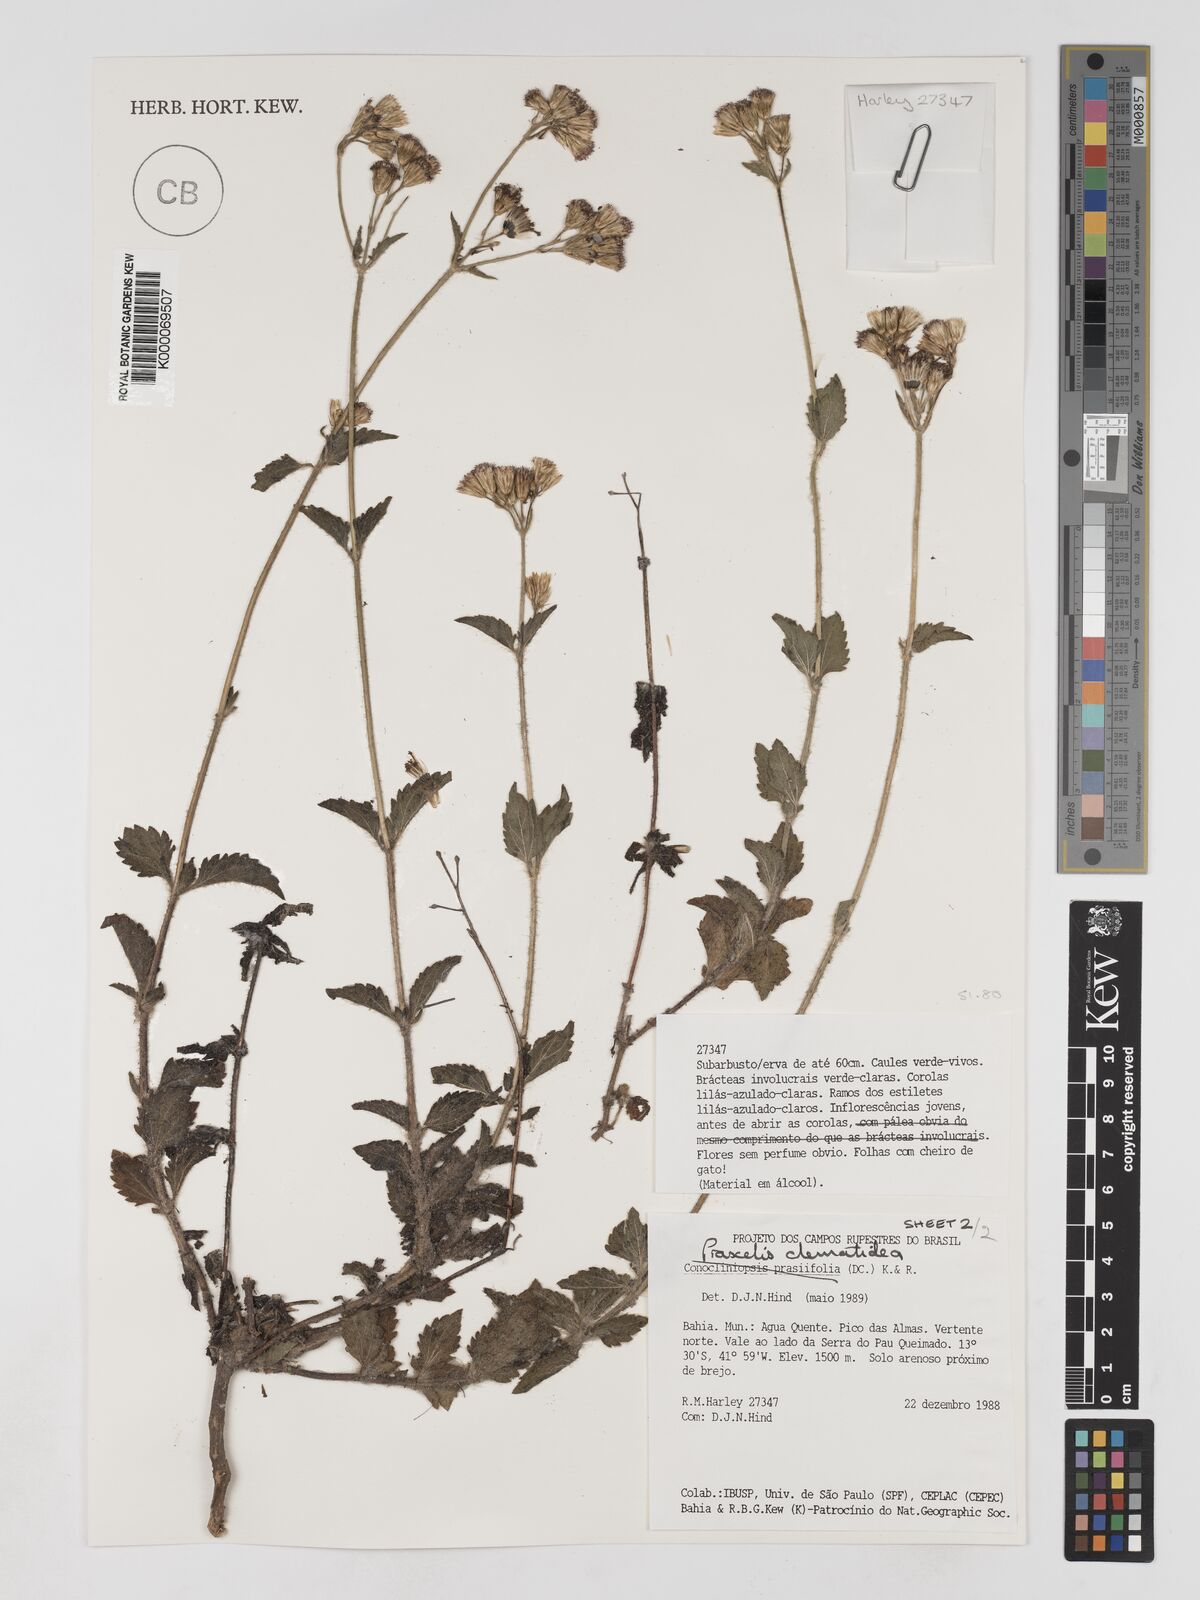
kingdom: Plantae
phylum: Tracheophyta
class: Magnoliopsida
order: Asterales
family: Asteraceae
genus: Praxelis
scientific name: Praxelis clematidea
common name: Praxelis
